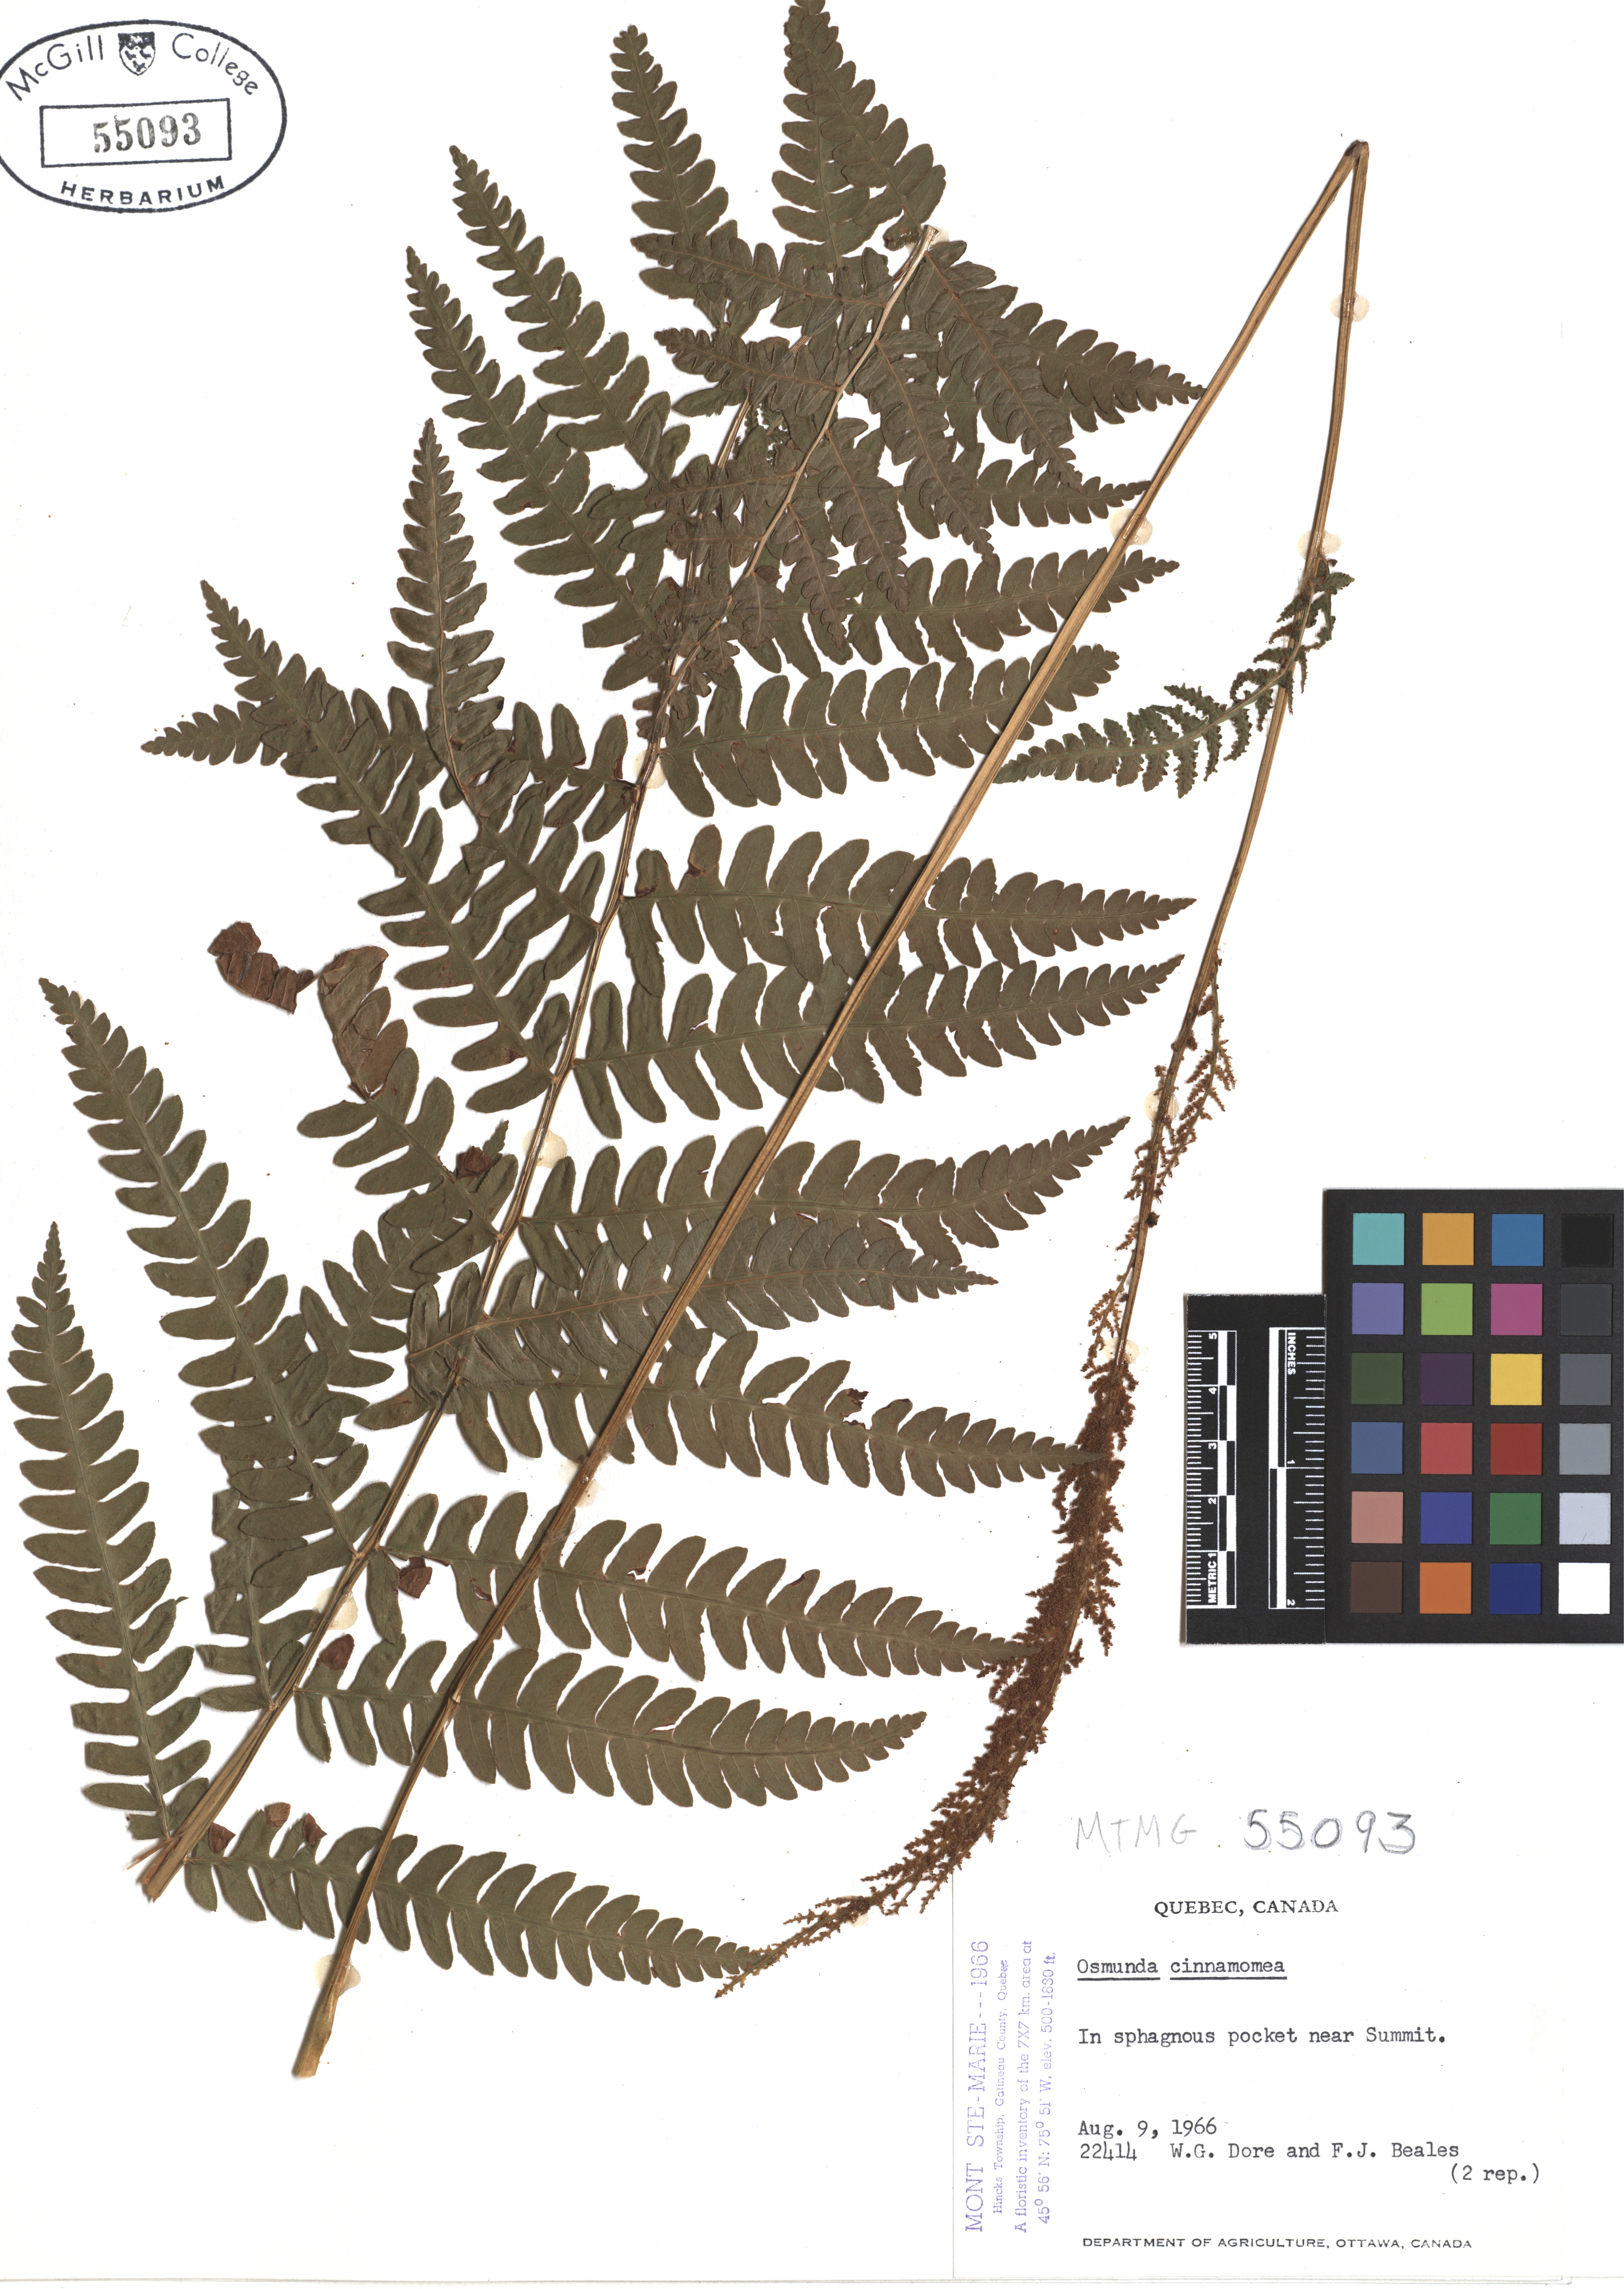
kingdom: Plantae
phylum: Tracheophyta
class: Polypodiopsida
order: Osmundales
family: Osmundaceae
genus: Osmundastrum
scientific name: Osmundastrum cinnamomeum
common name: Cinnamon fern
